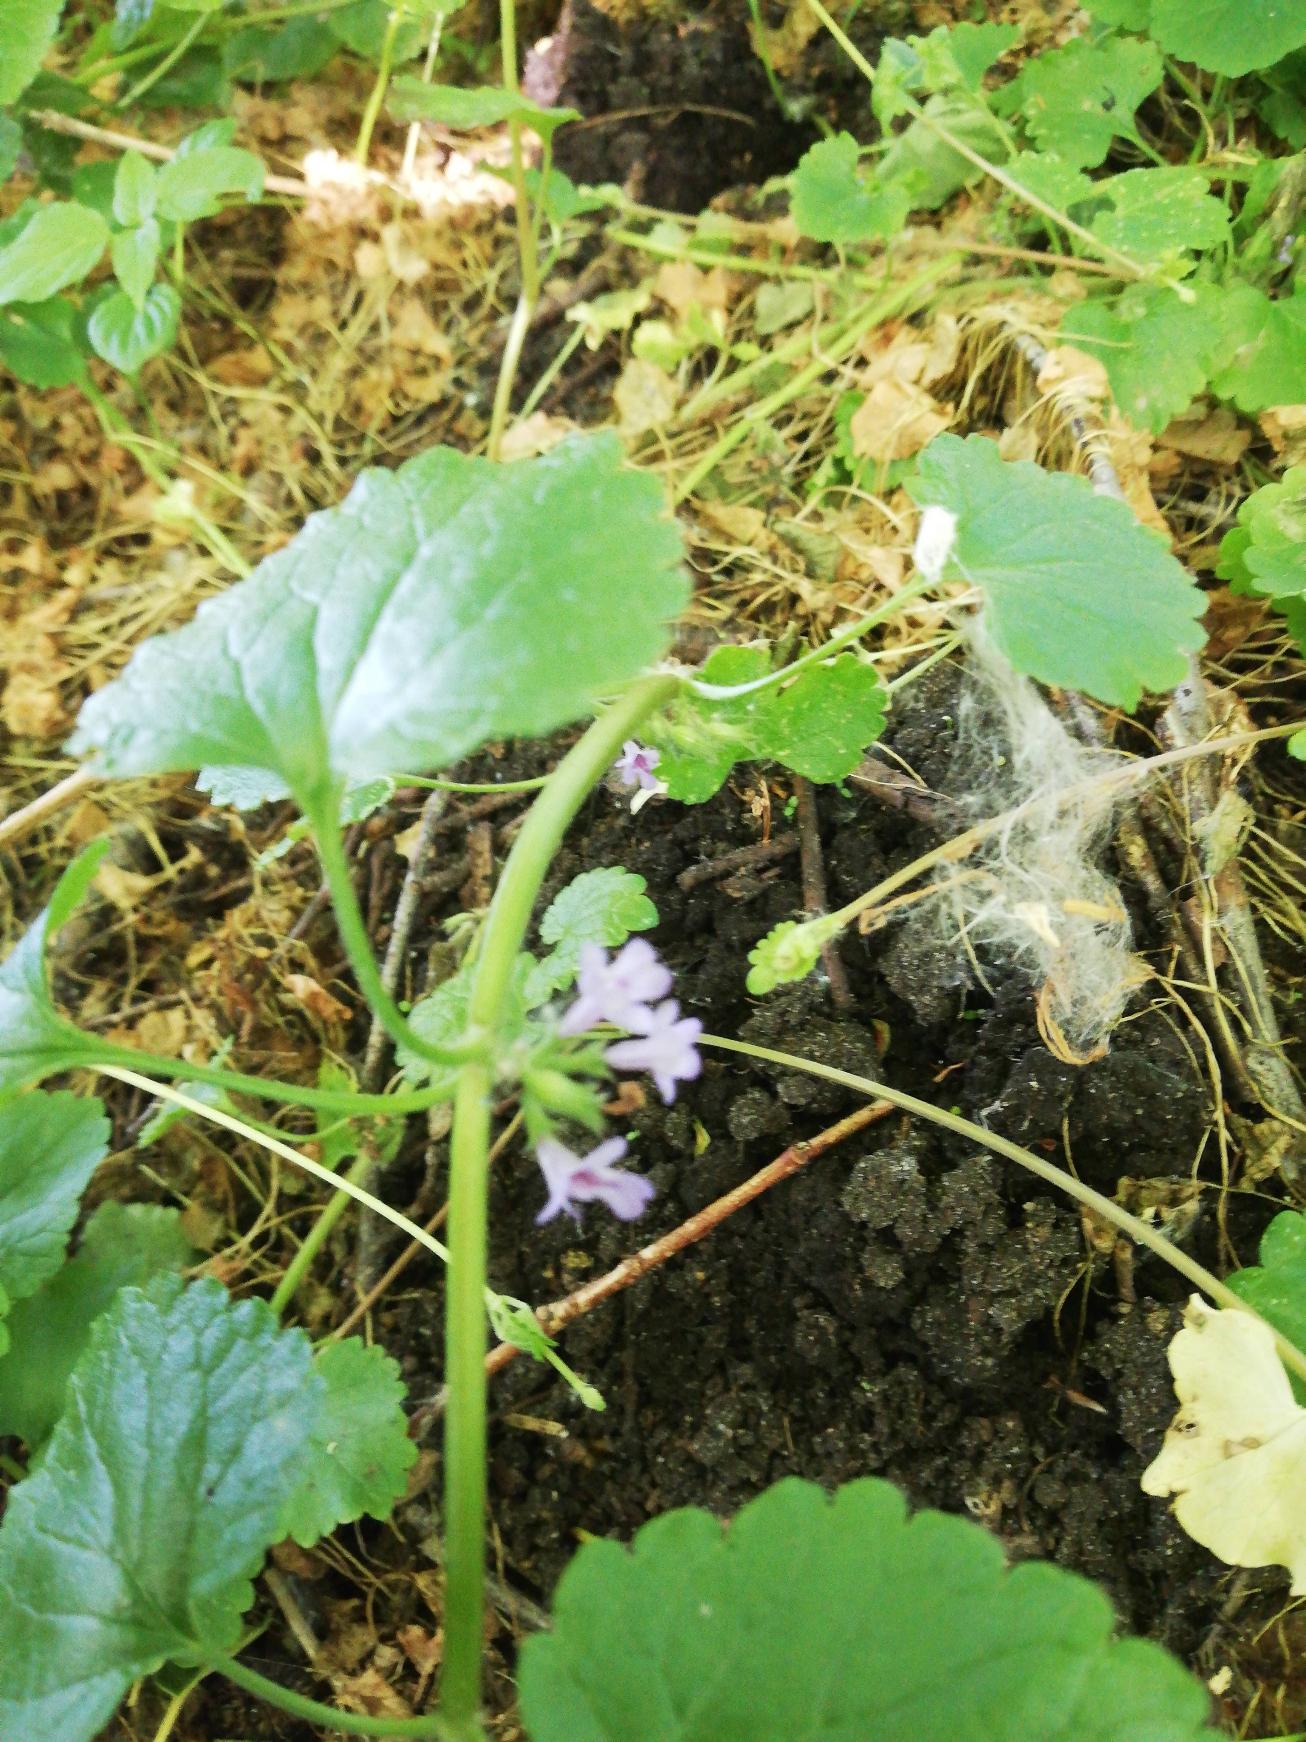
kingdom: Plantae
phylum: Tracheophyta
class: Magnoliopsida
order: Lamiales
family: Lamiaceae
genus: Glechoma
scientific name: Glechoma hederacea
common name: Korsknap
